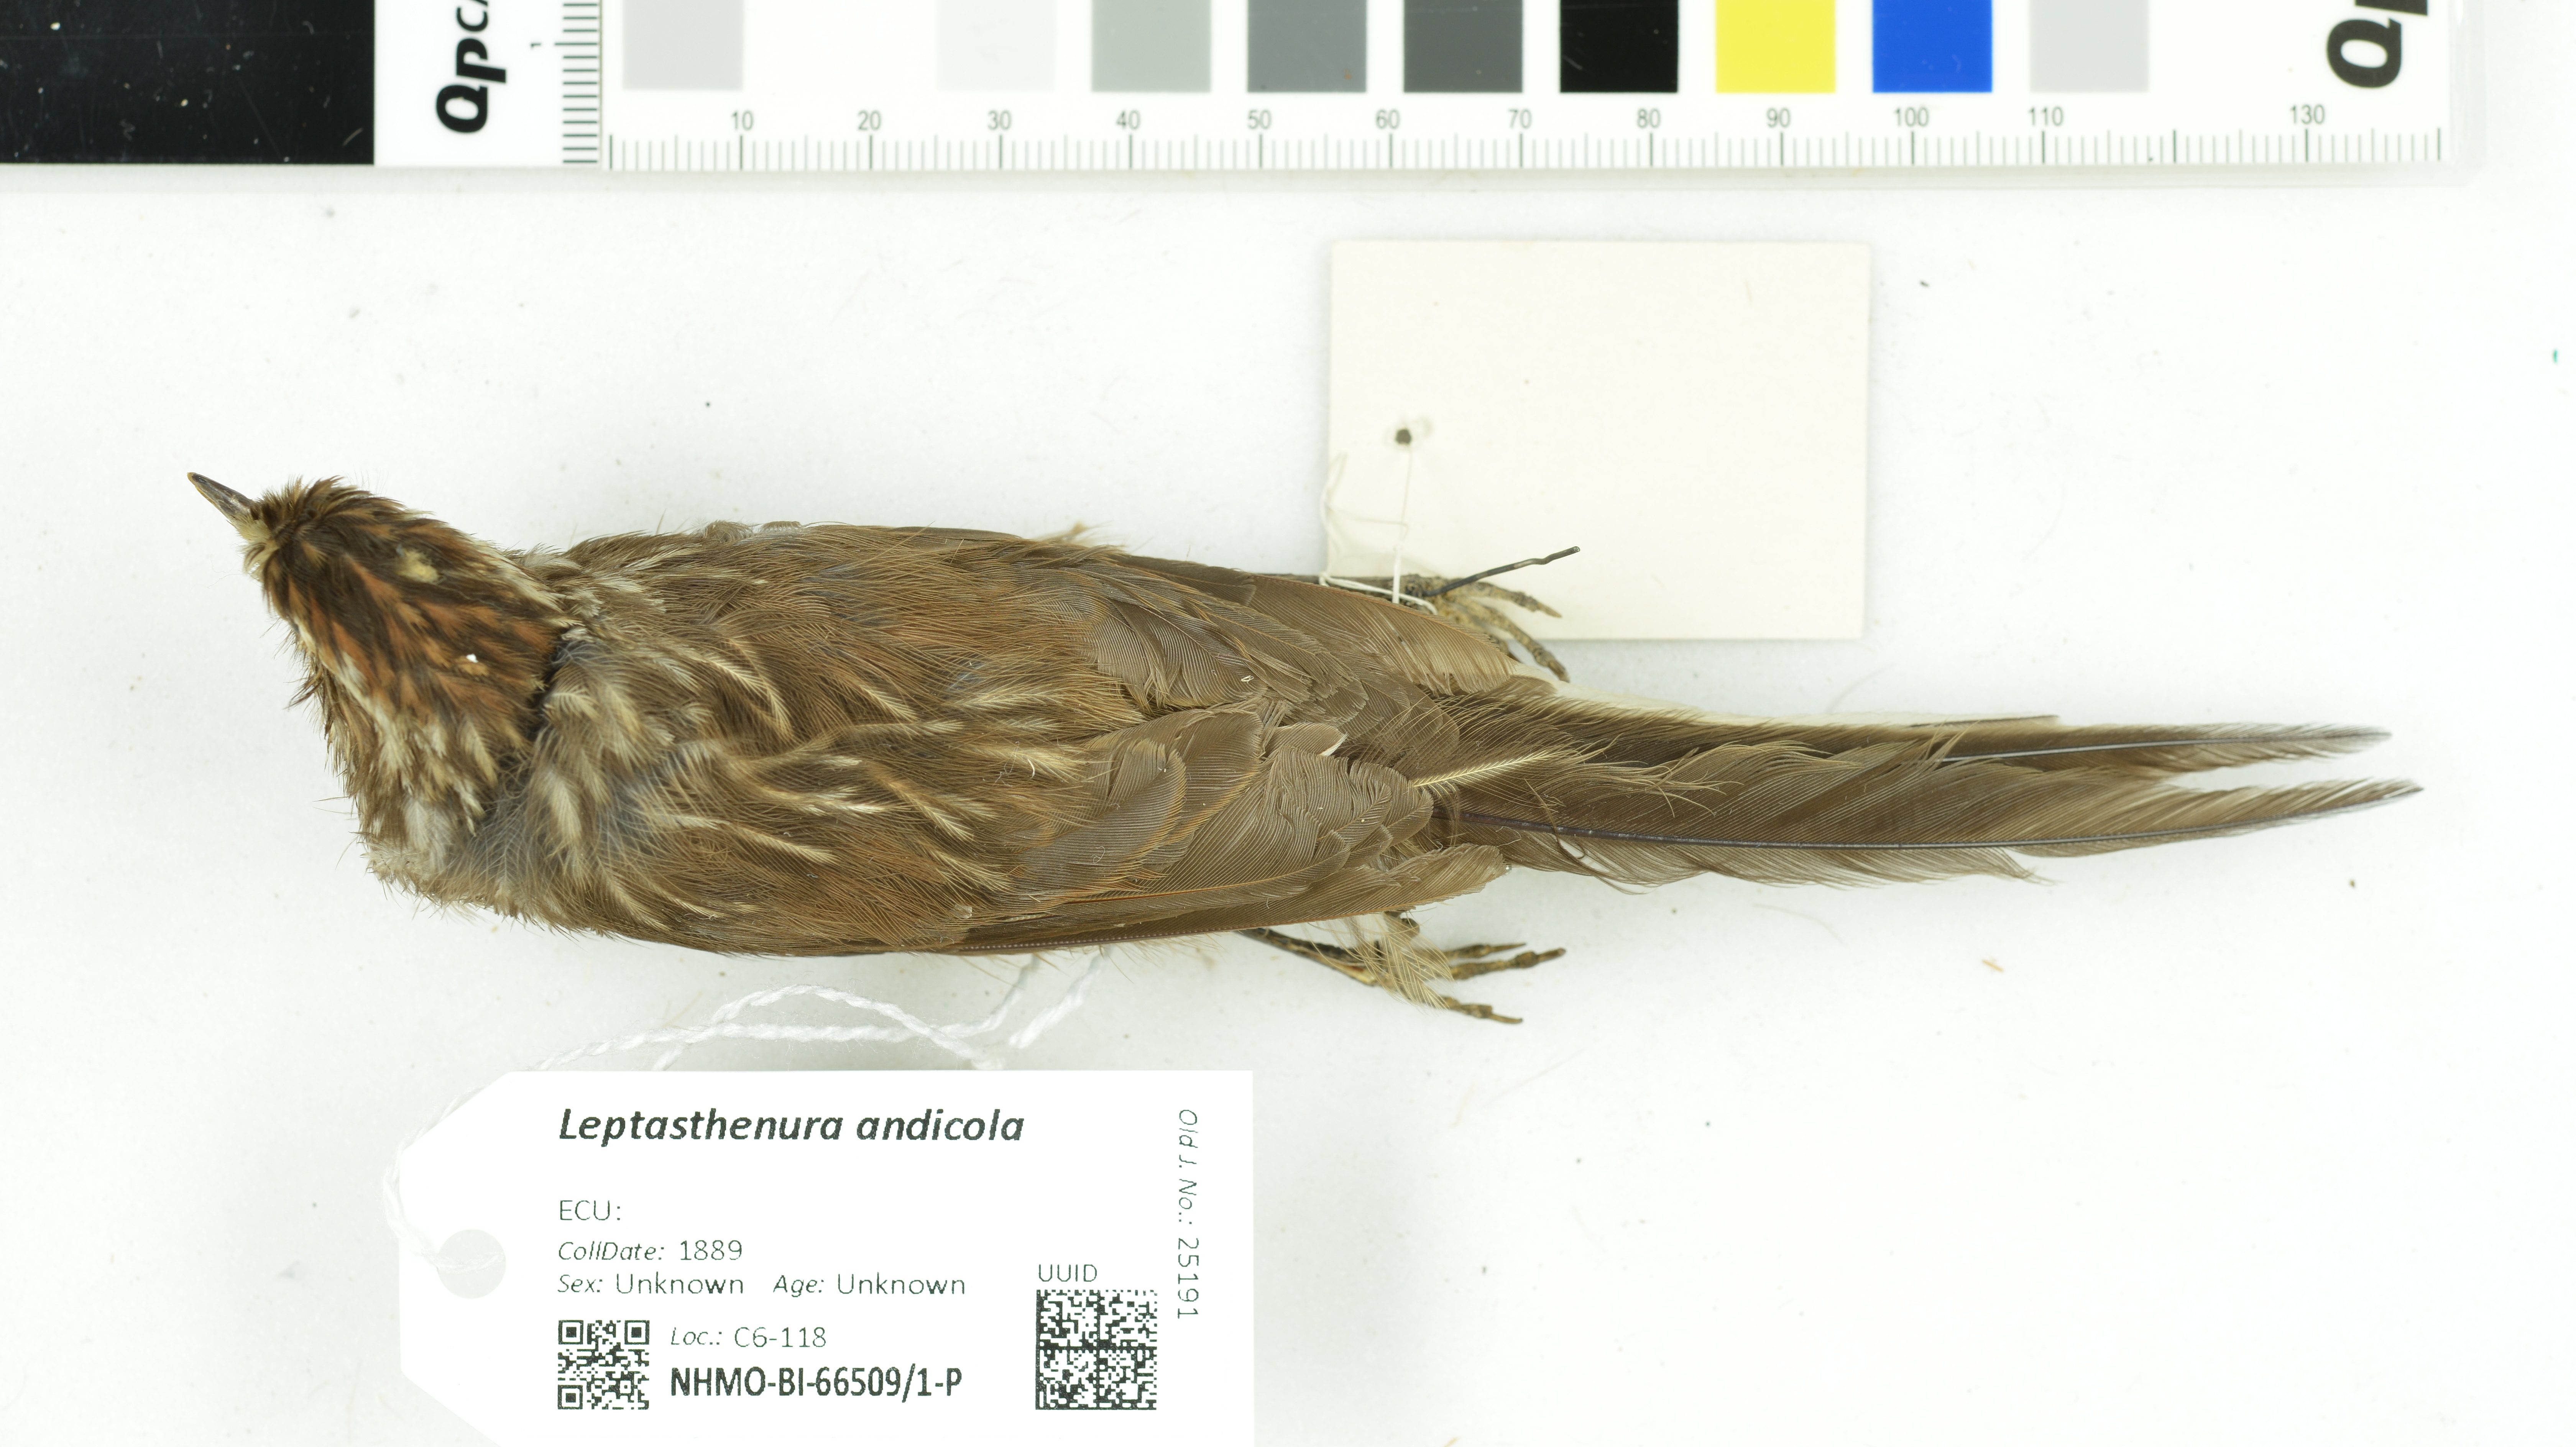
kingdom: Animalia
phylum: Chordata
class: Aves
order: Passeriformes
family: Furnariidae
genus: Leptasthenura
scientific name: Leptasthenura andicola
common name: Andean tit-spinetail
